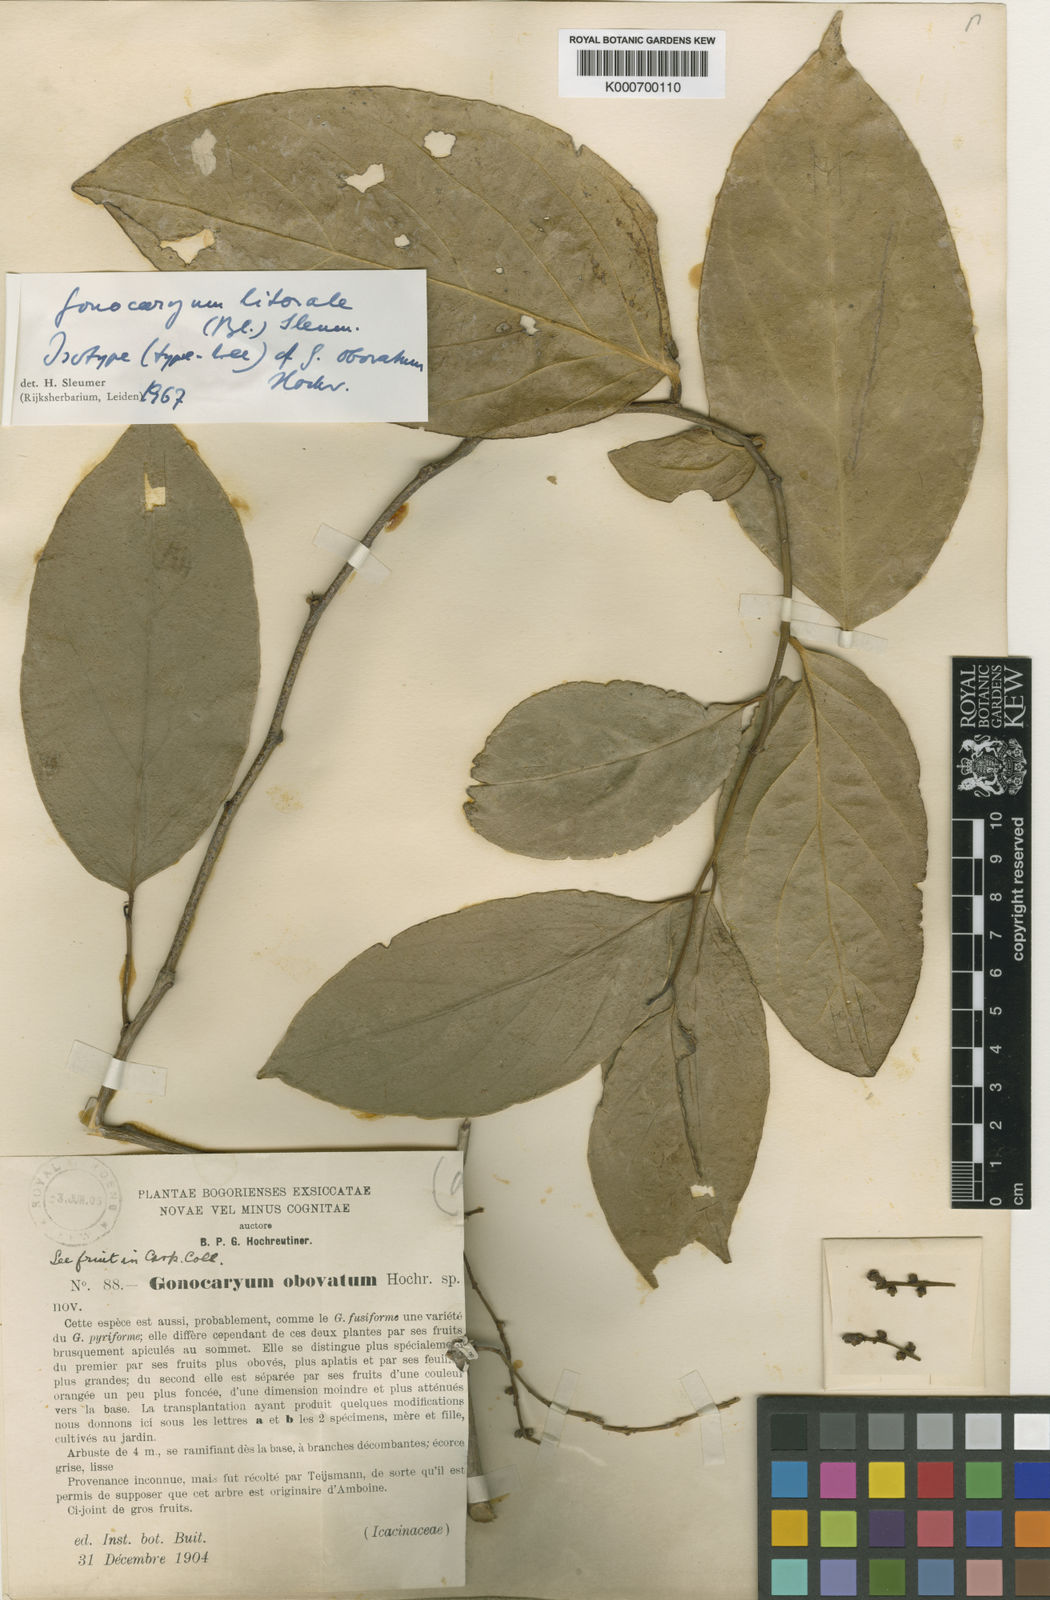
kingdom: Plantae
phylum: Tracheophyta
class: Magnoliopsida
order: Cardiopteridales
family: Cardiopteridaceae
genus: Gonocaryum
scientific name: Gonocaryum litorale
